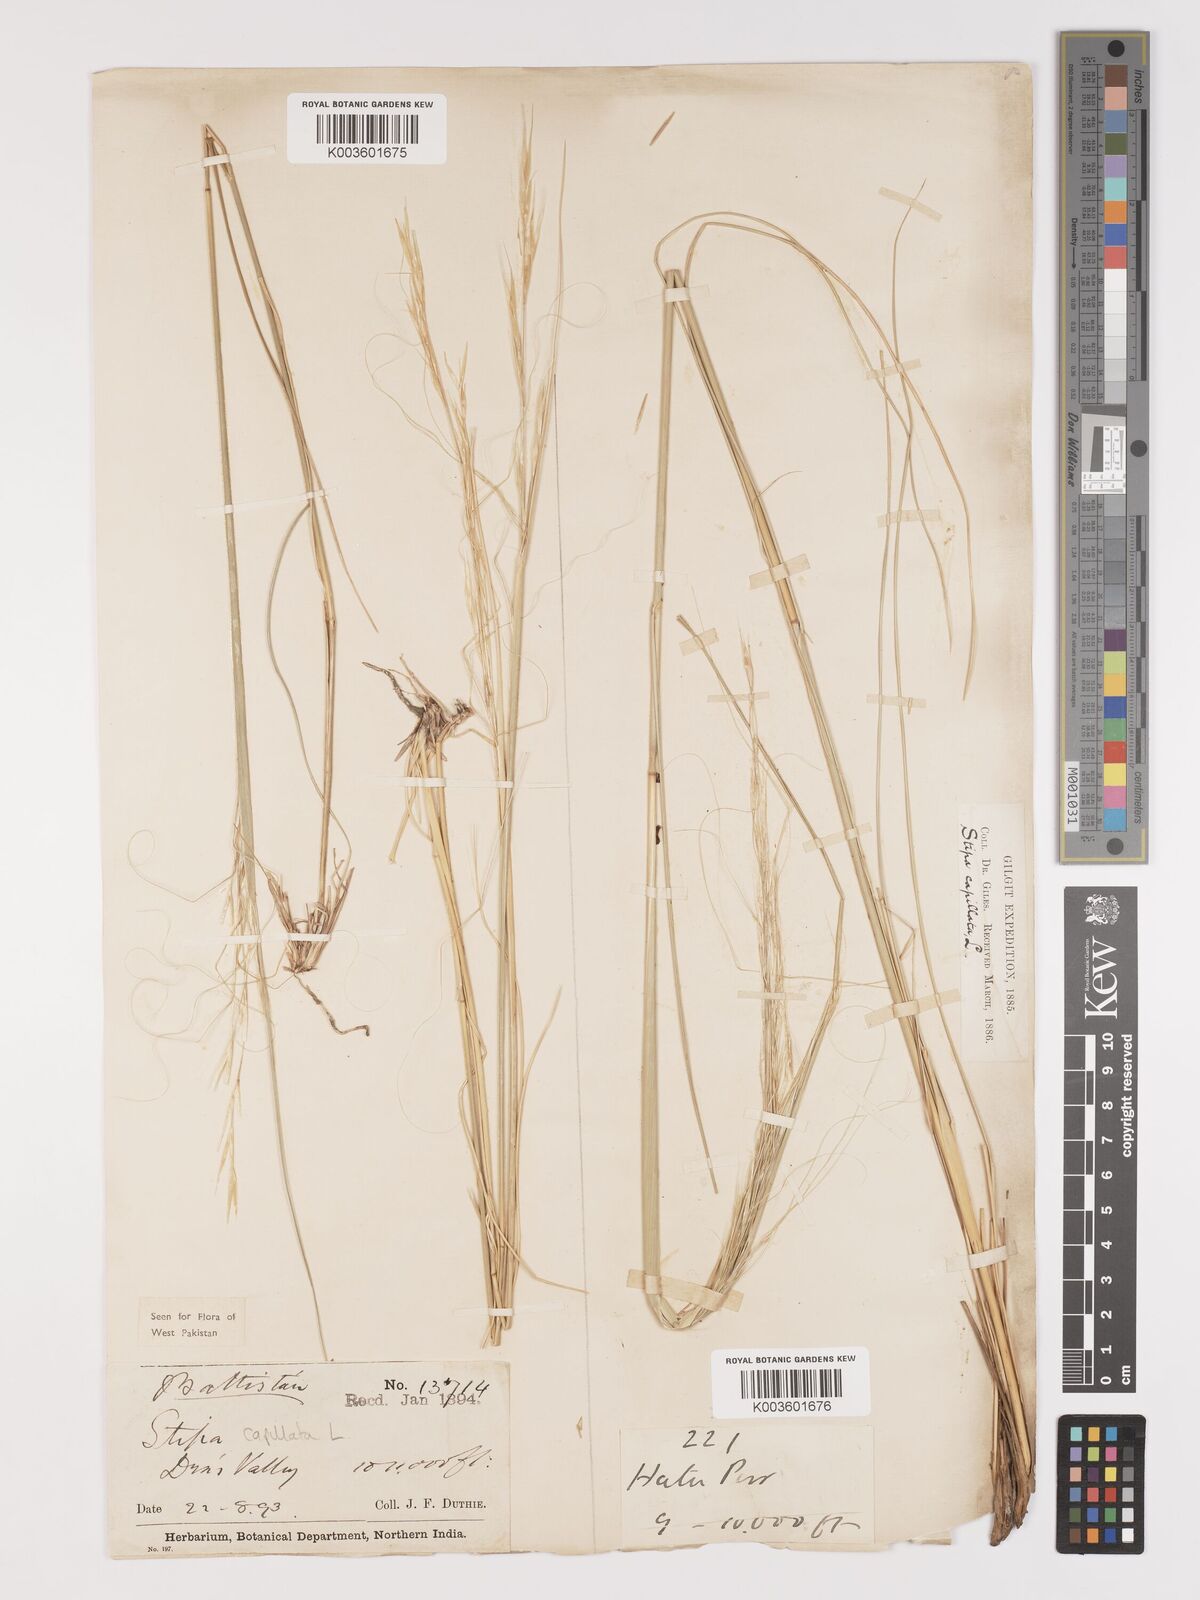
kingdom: Plantae
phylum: Tracheophyta
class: Liliopsida
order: Poales
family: Poaceae
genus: Stipa
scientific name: Stipa capillata
